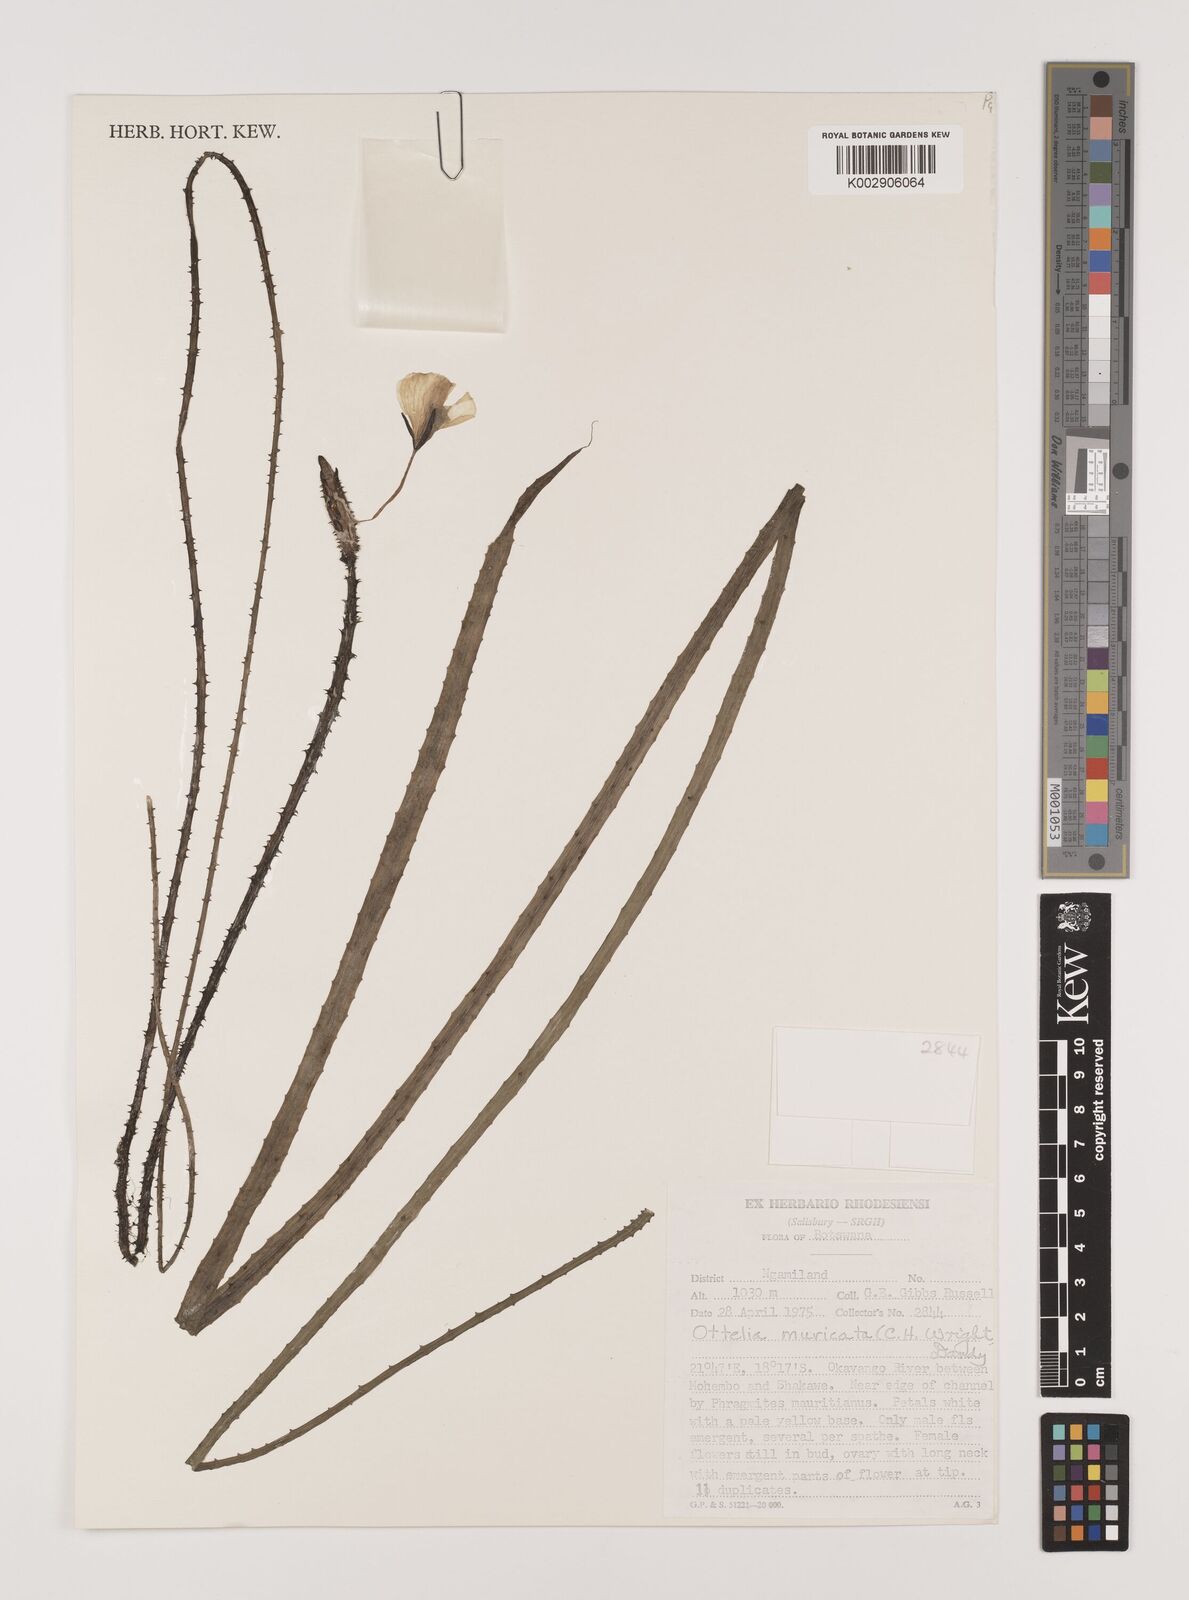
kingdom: Plantae
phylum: Tracheophyta
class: Liliopsida
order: Alismatales
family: Hydrocharitaceae
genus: Ottelia
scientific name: Ottelia muricata
